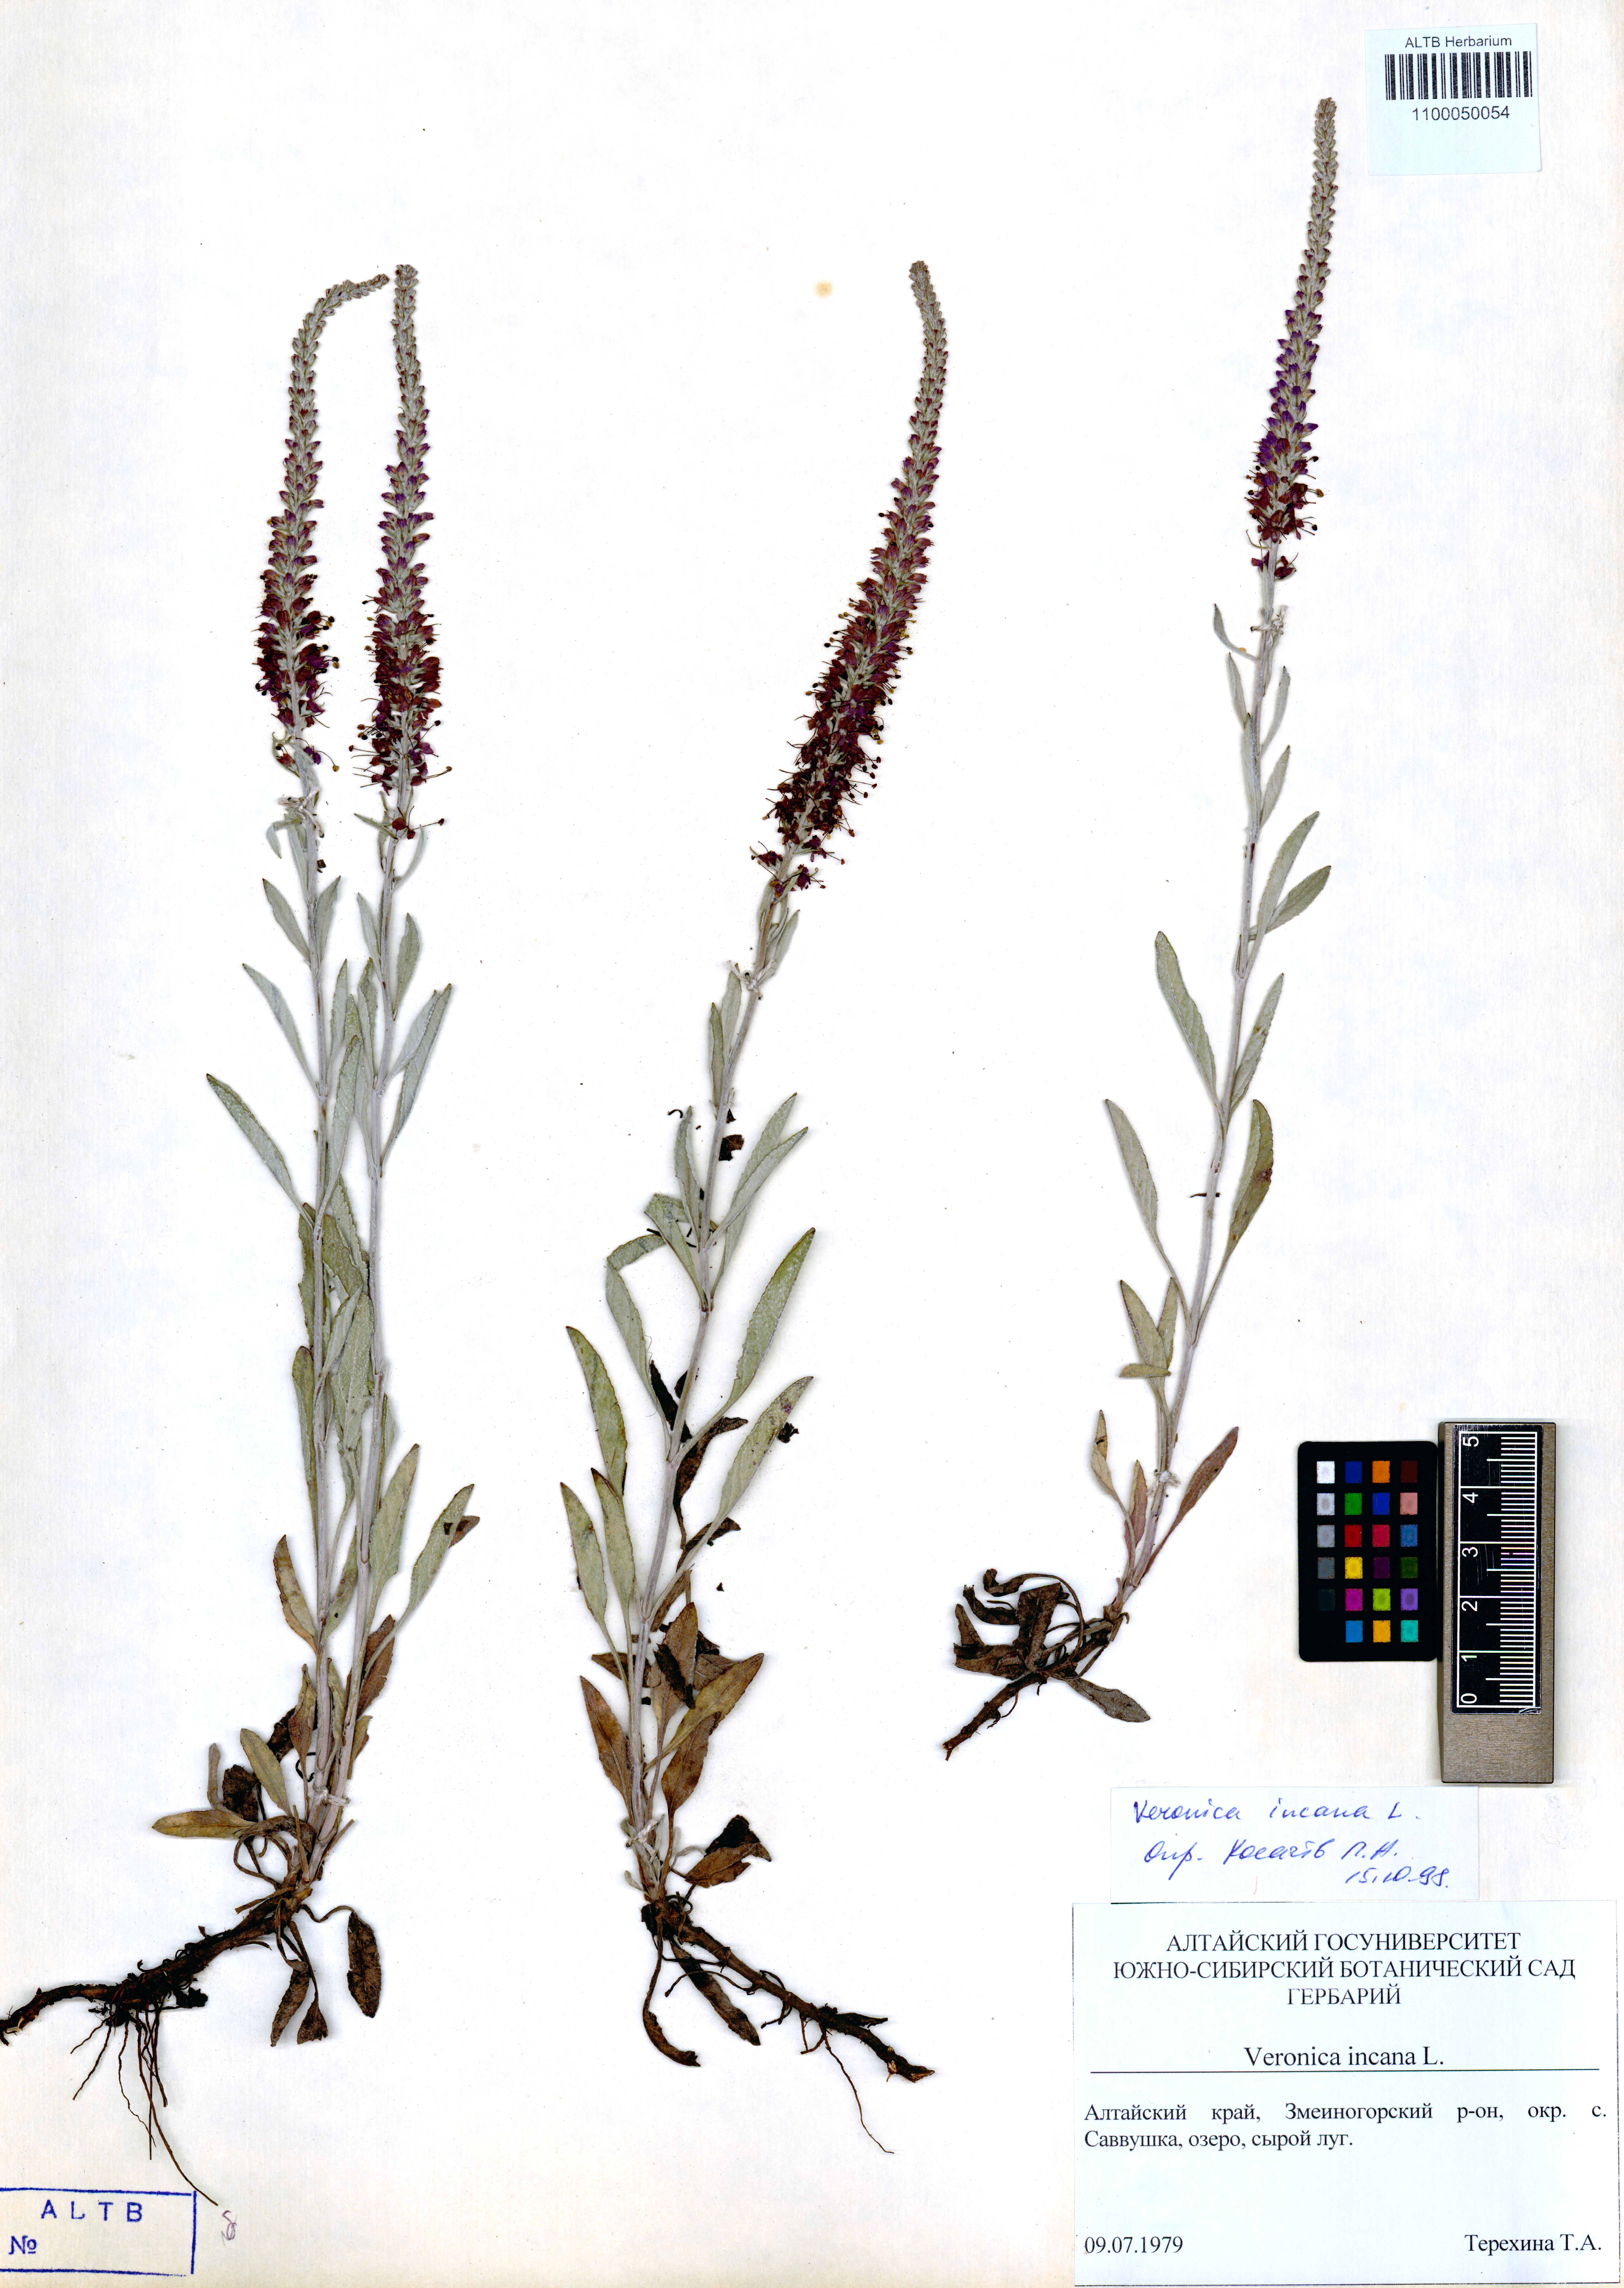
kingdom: Plantae
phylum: Tracheophyta
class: Magnoliopsida
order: Lamiales
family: Plantaginaceae
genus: Veronica
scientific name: Veronica incana
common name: Silver speedwell
